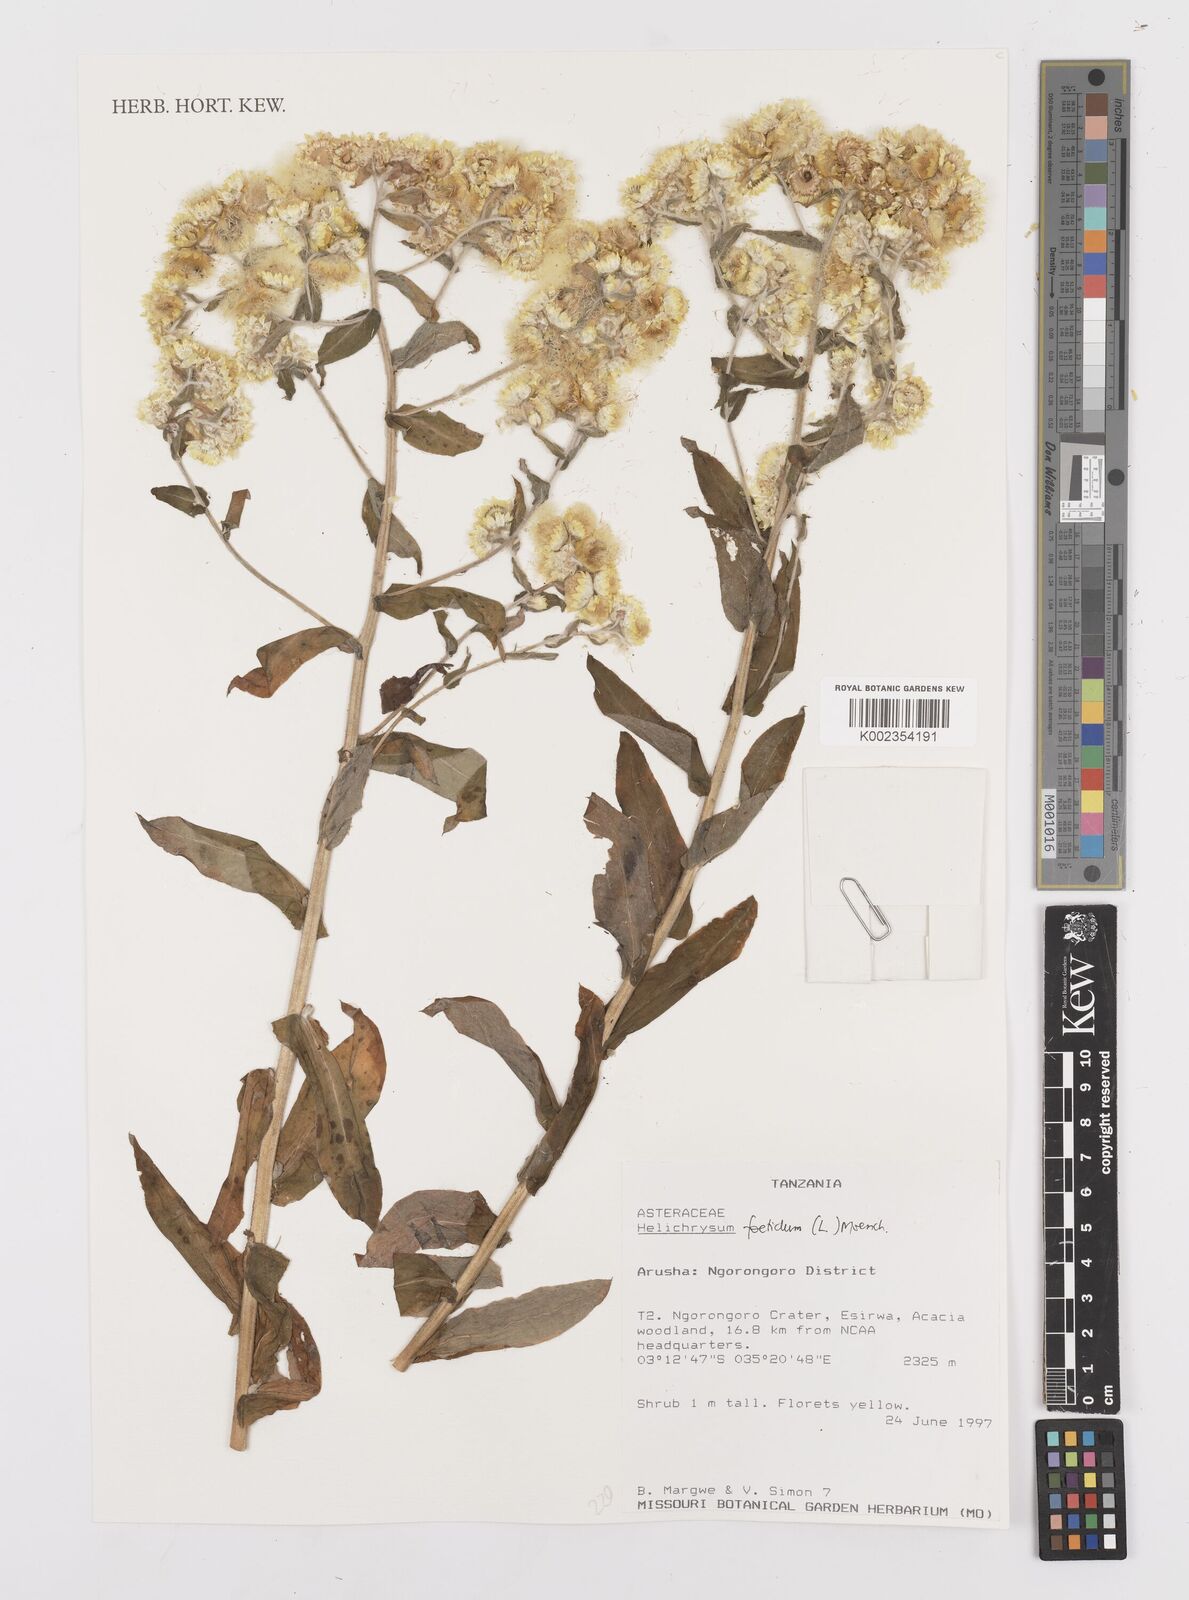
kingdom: Plantae
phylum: Tracheophyta
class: Magnoliopsida
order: Asterales
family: Asteraceae
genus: Helichrysum
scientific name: Helichrysum foetidum
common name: Stinking everlasting
